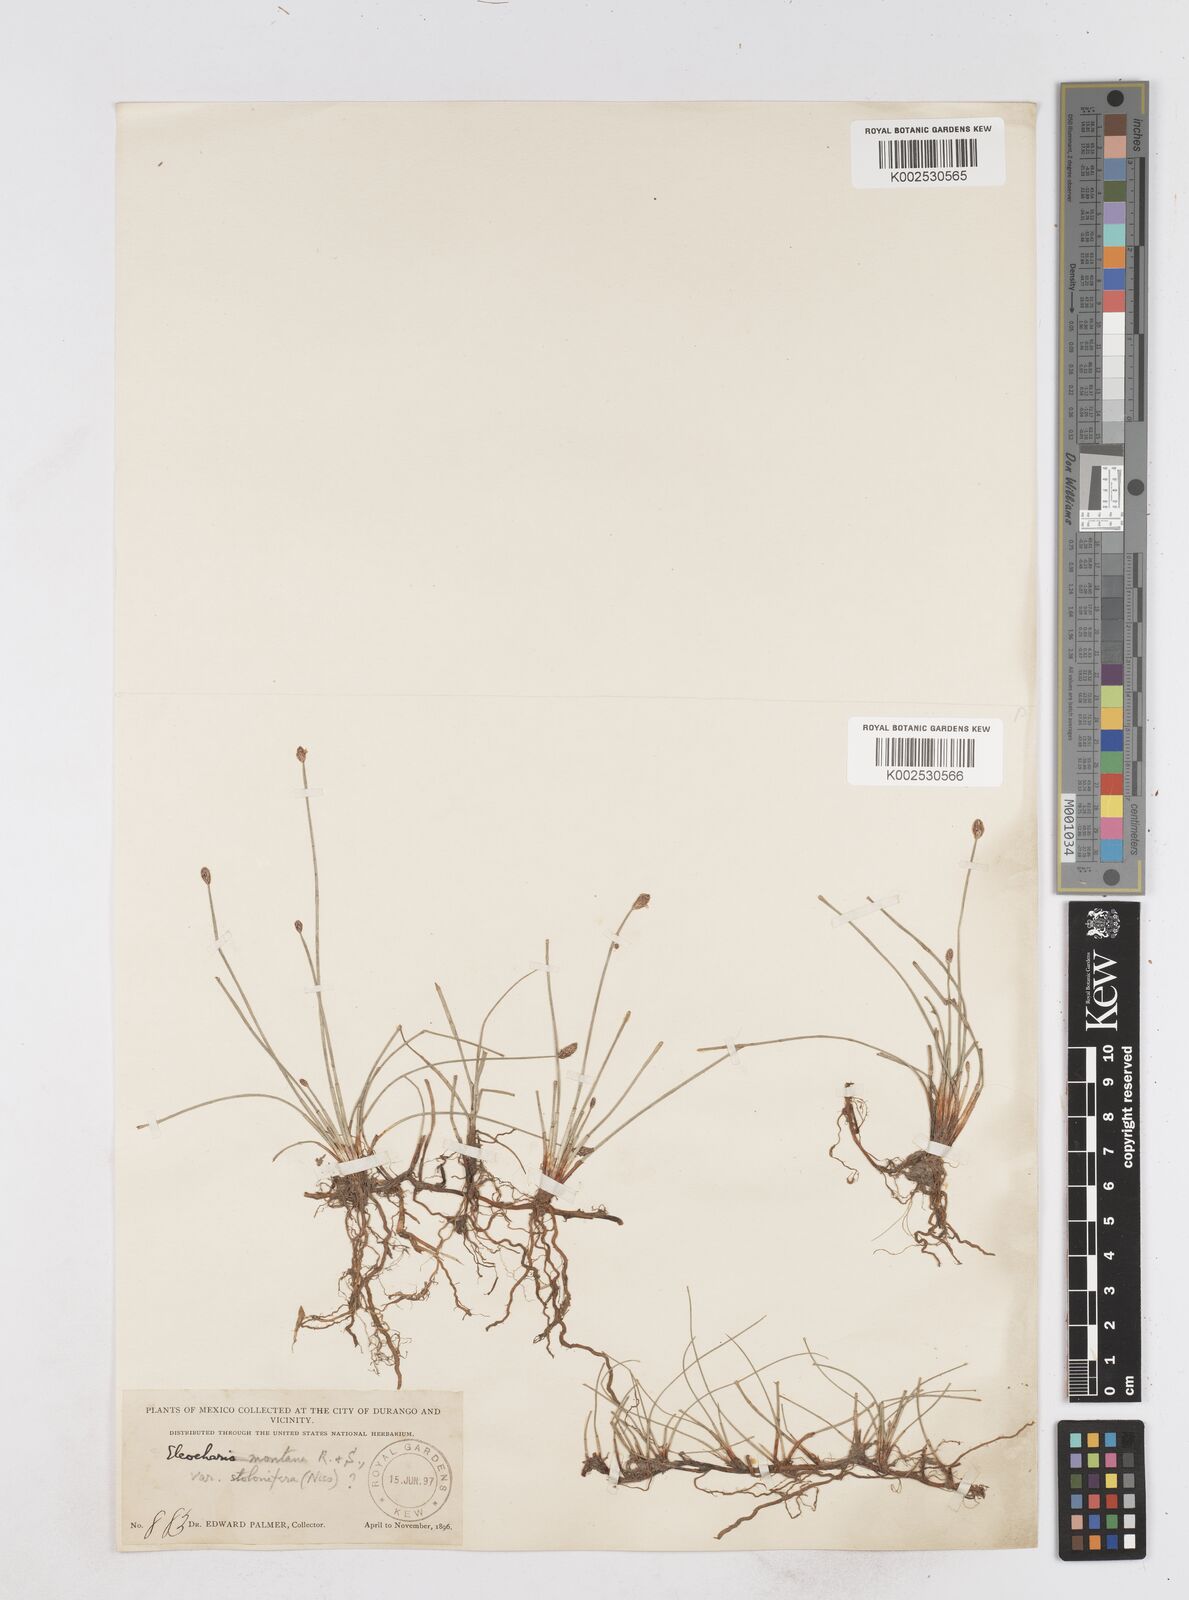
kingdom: Plantae
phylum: Tracheophyta
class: Liliopsida
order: Poales
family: Cyperaceae
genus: Eleocharis
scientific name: Eleocharis montana
